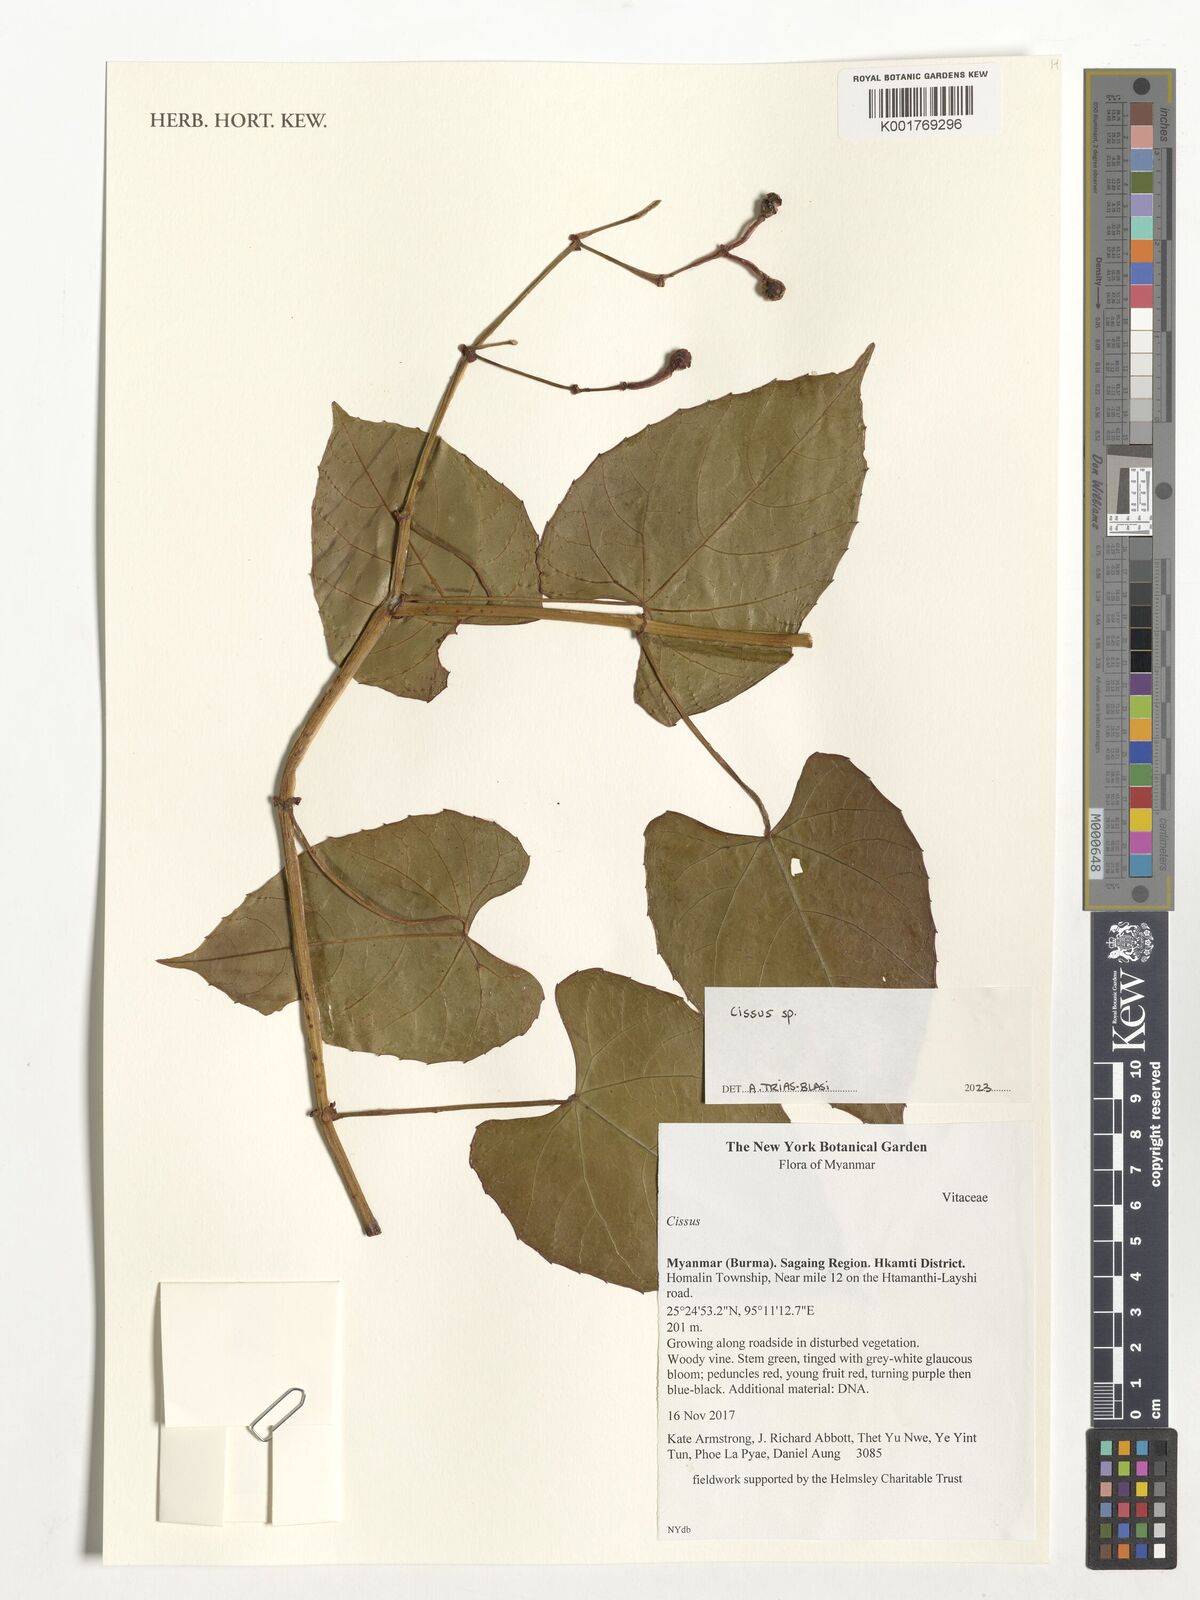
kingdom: Plantae
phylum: Tracheophyta
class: Magnoliopsida
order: Vitales
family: Vitaceae
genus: Cissus
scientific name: Cissus
